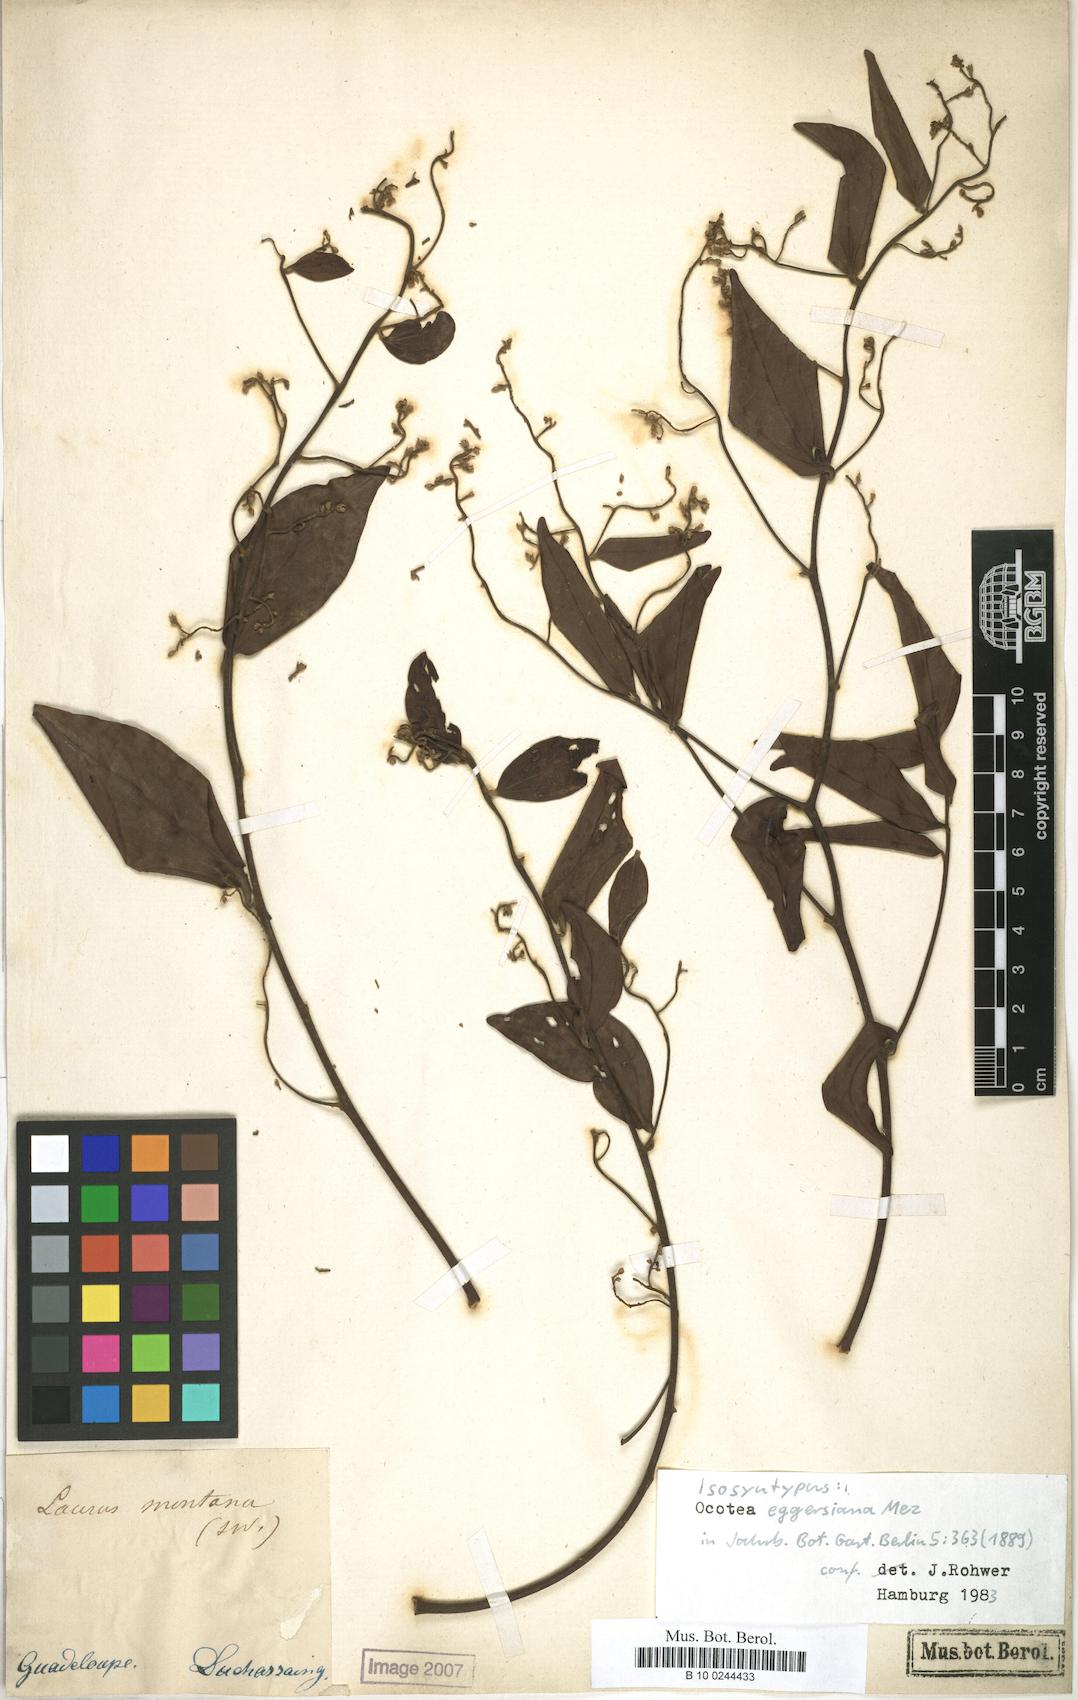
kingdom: Plantae
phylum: Tracheophyta
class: Magnoliopsida
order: Laurales
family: Lauraceae
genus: Ocotea
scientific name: Ocotea eggersiana
